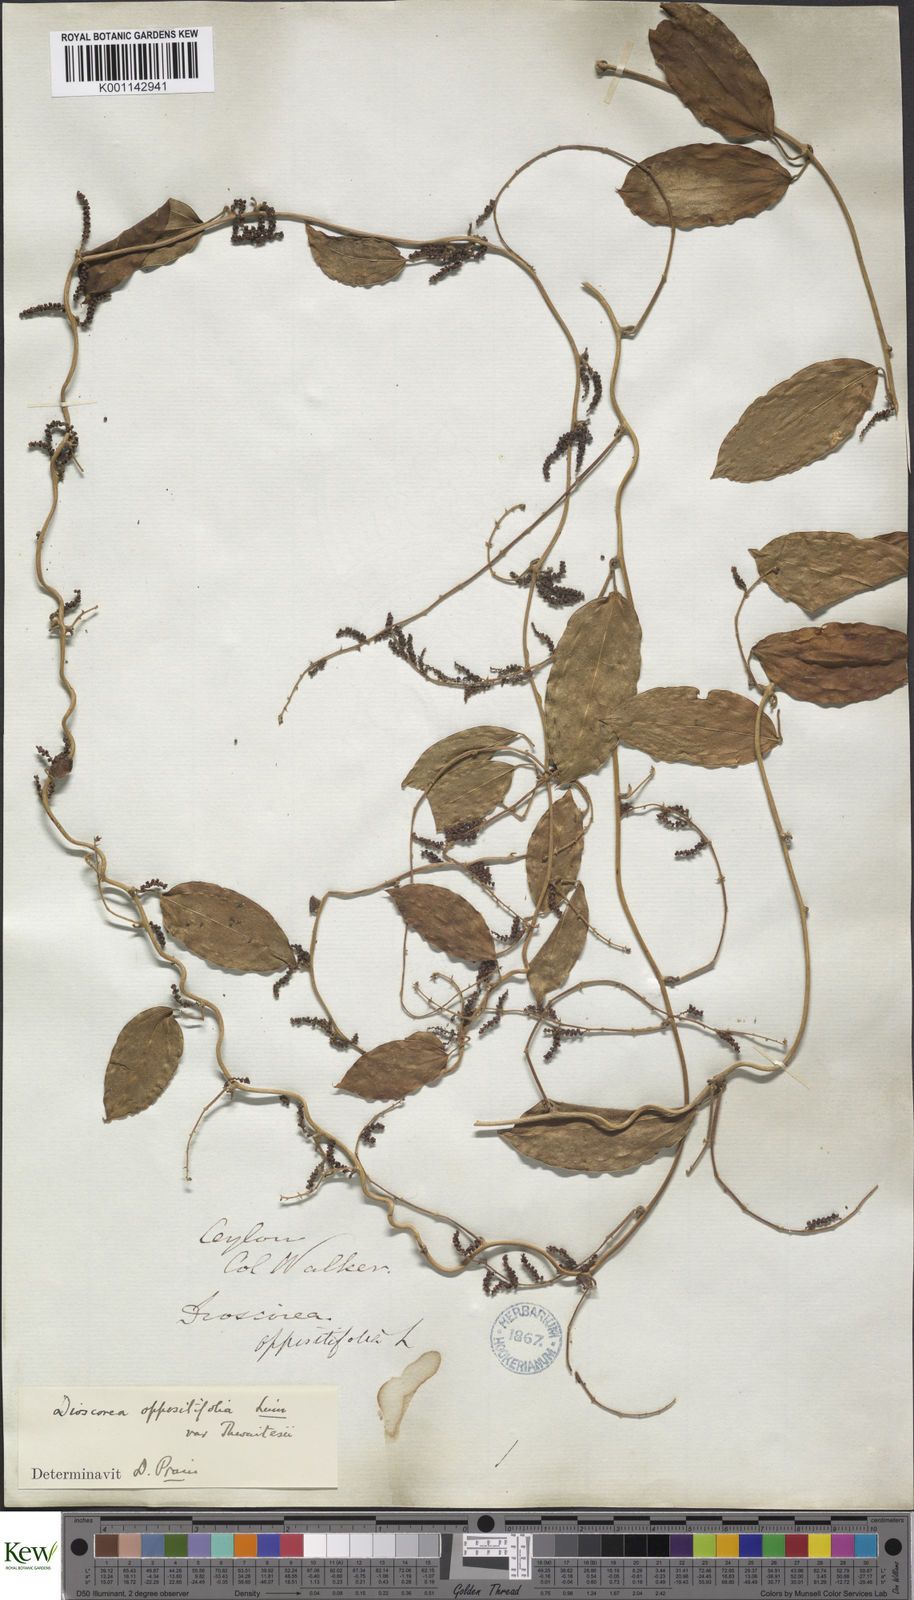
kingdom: Plantae
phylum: Tracheophyta
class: Liliopsida
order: Dioscoreales
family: Dioscoreaceae
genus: Dioscorea
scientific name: Dioscorea oppositifolia
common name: Chinese yam
